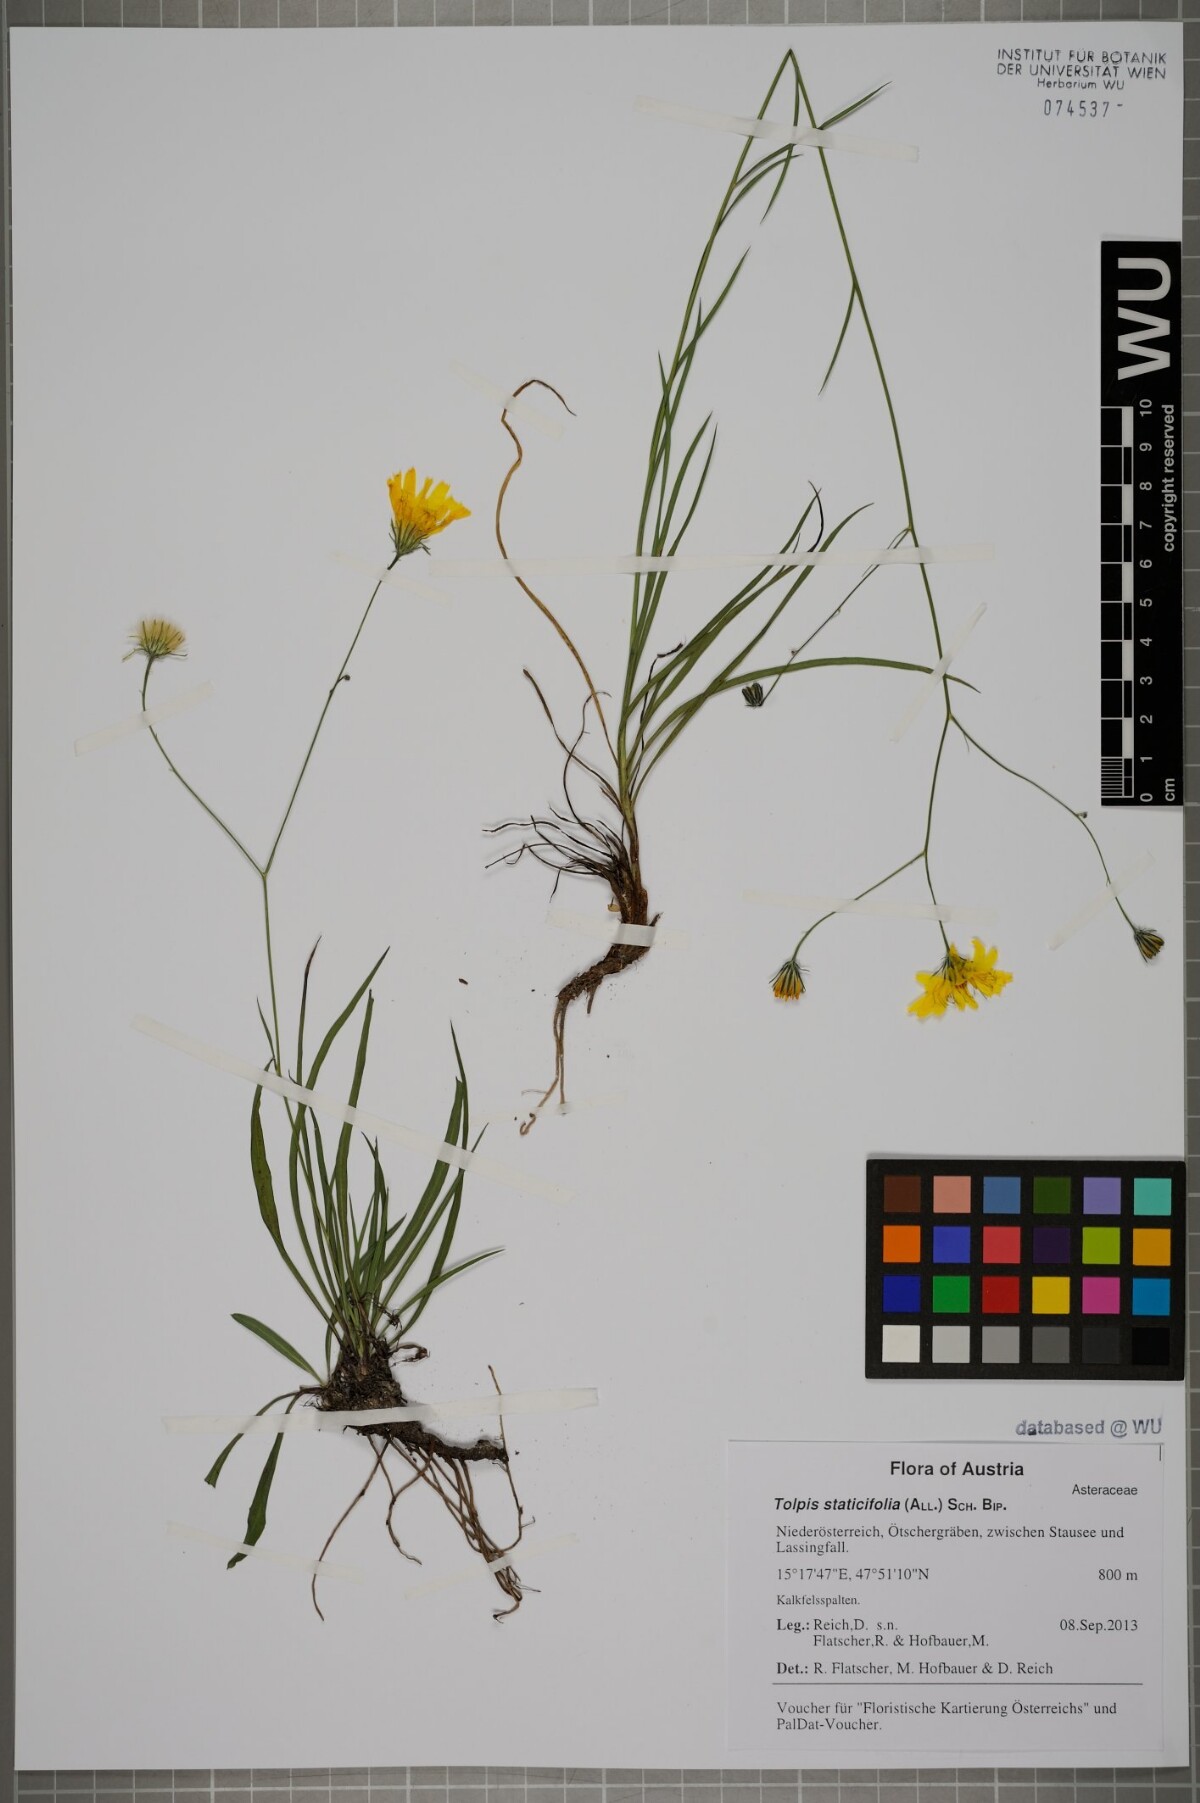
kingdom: Plantae
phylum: Tracheophyta
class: Magnoliopsida
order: Asterales
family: Asteraceae
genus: Tolpis
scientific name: Tolpis staticifolia
